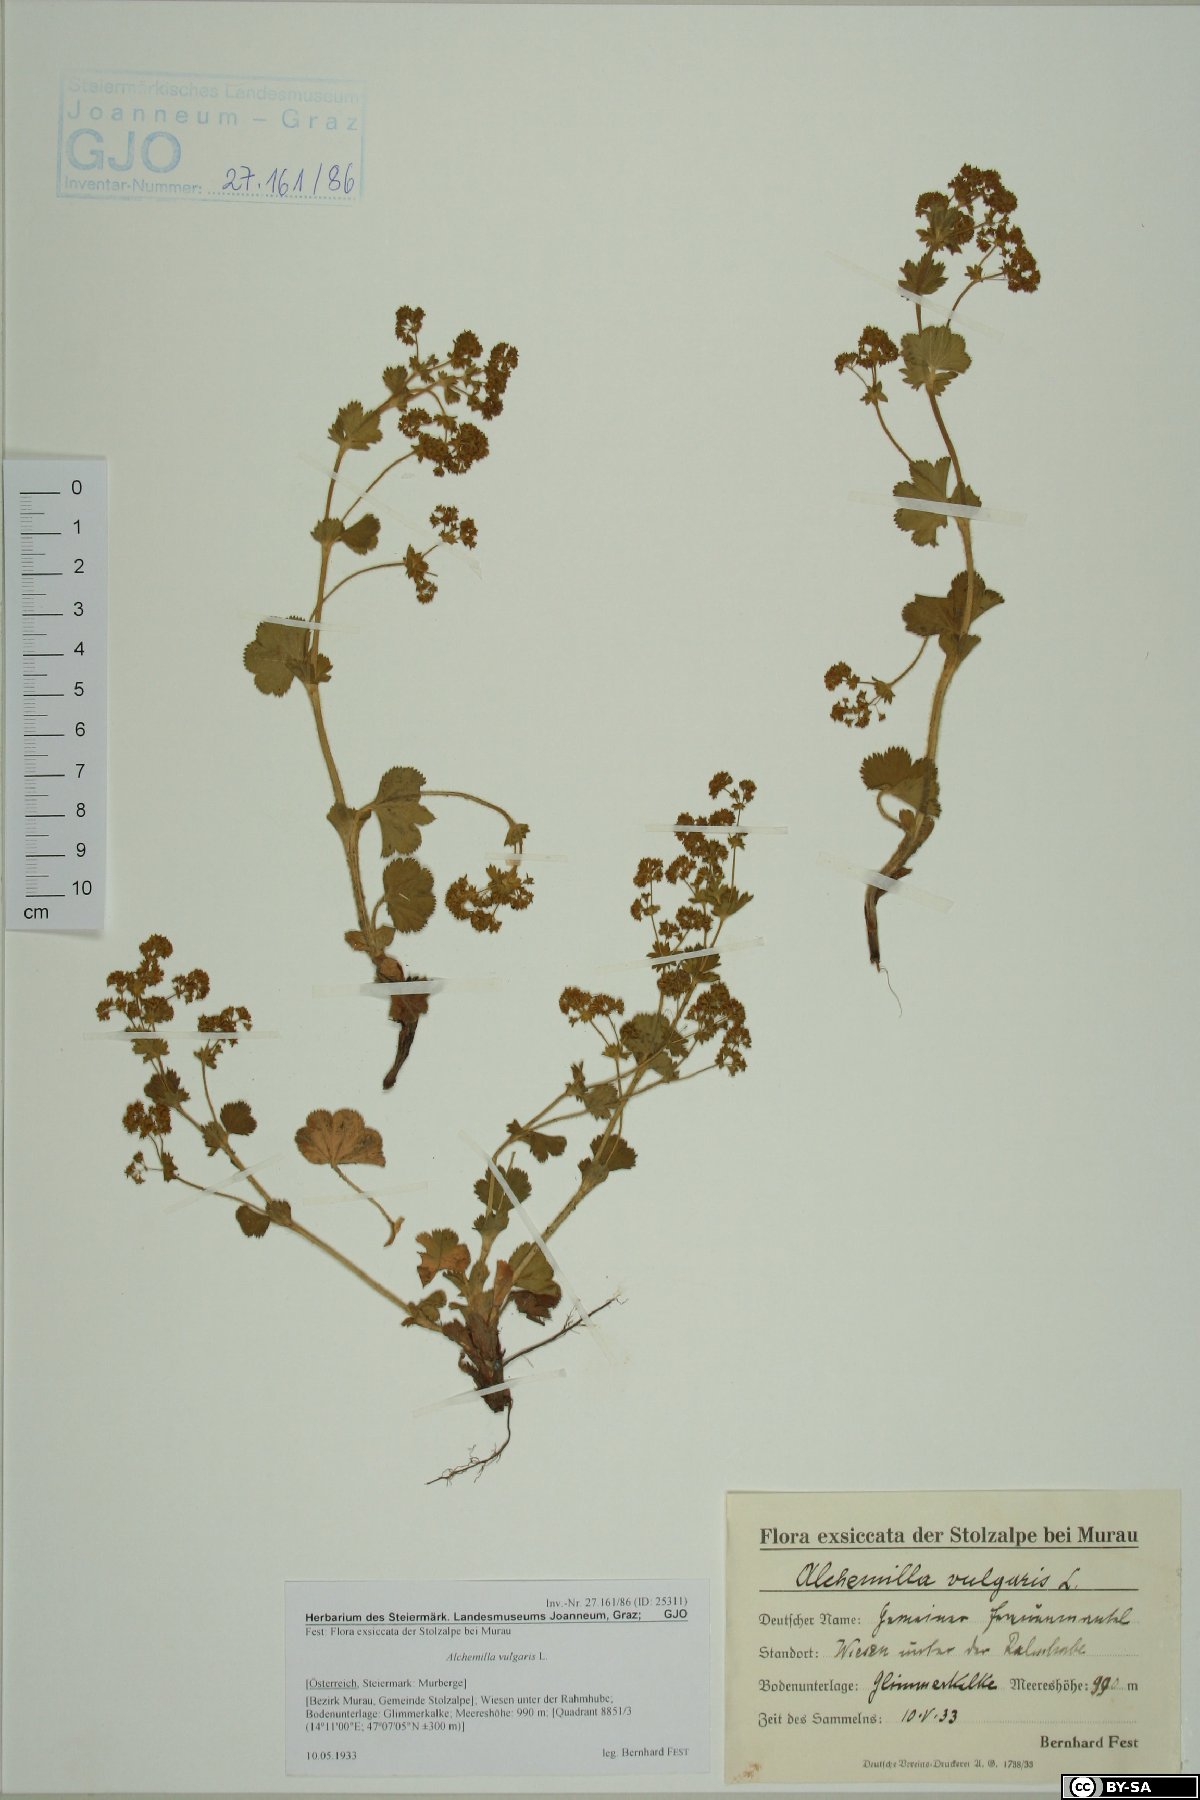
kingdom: Plantae
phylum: Tracheophyta
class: Magnoliopsida
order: Rosales
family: Rosaceae
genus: Alchemilla
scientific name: Alchemilla vulgaris
